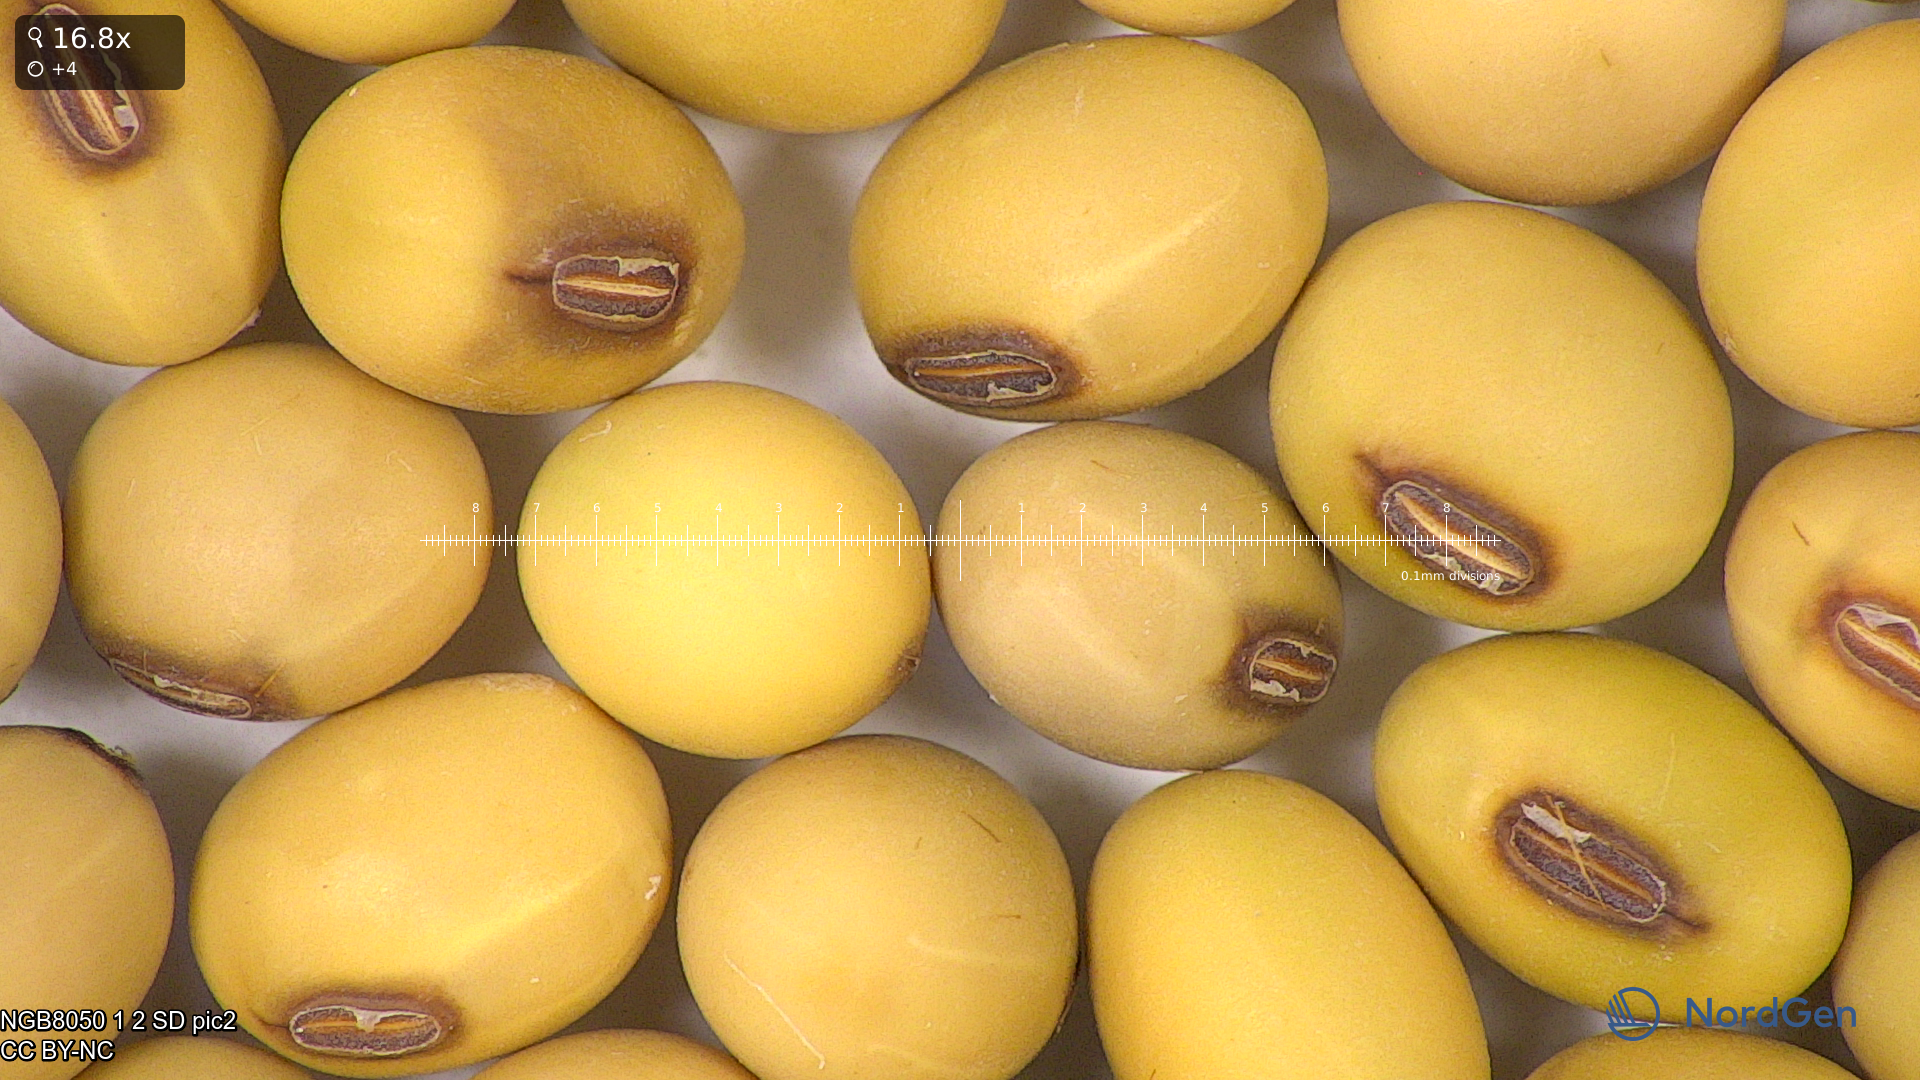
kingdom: Plantae
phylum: Tracheophyta
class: Magnoliopsida
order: Fabales
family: Fabaceae
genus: Glycine
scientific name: Glycine max
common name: Soya-bean
